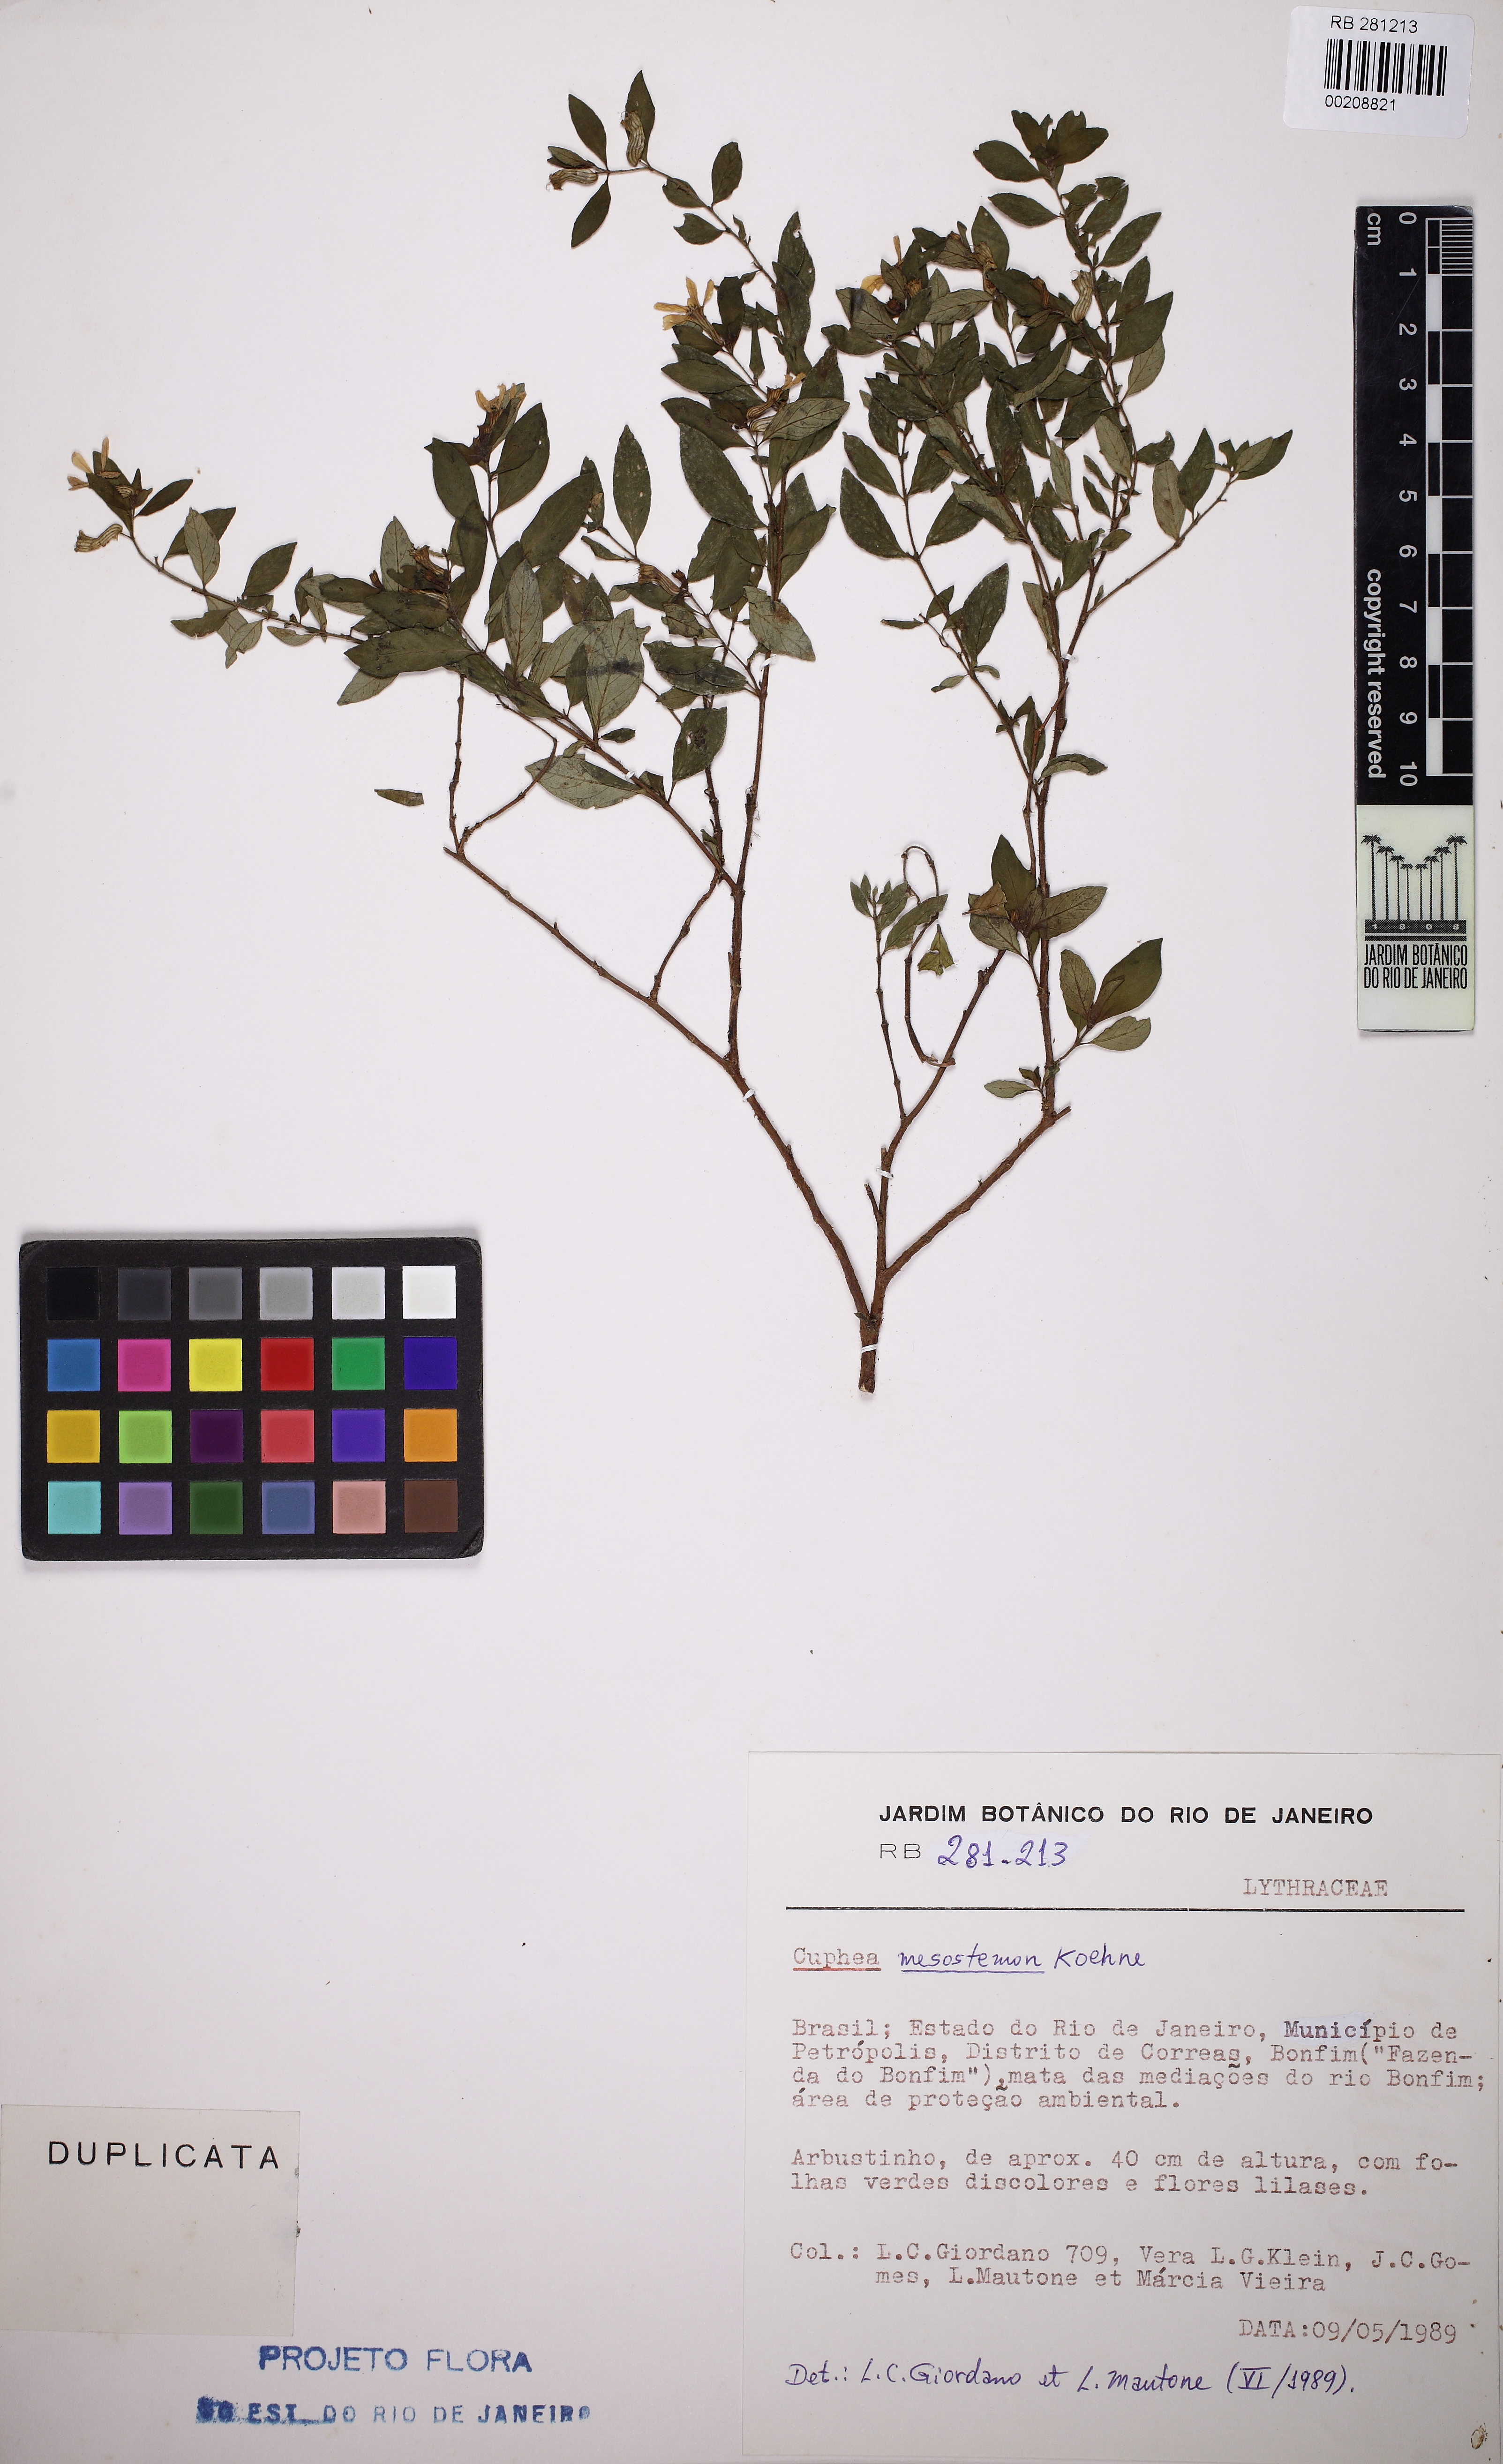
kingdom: Plantae
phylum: Tracheophyta
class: Magnoliopsida
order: Myrtales
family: Lythraceae
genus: Cuphea
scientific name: Cuphea ingrata
